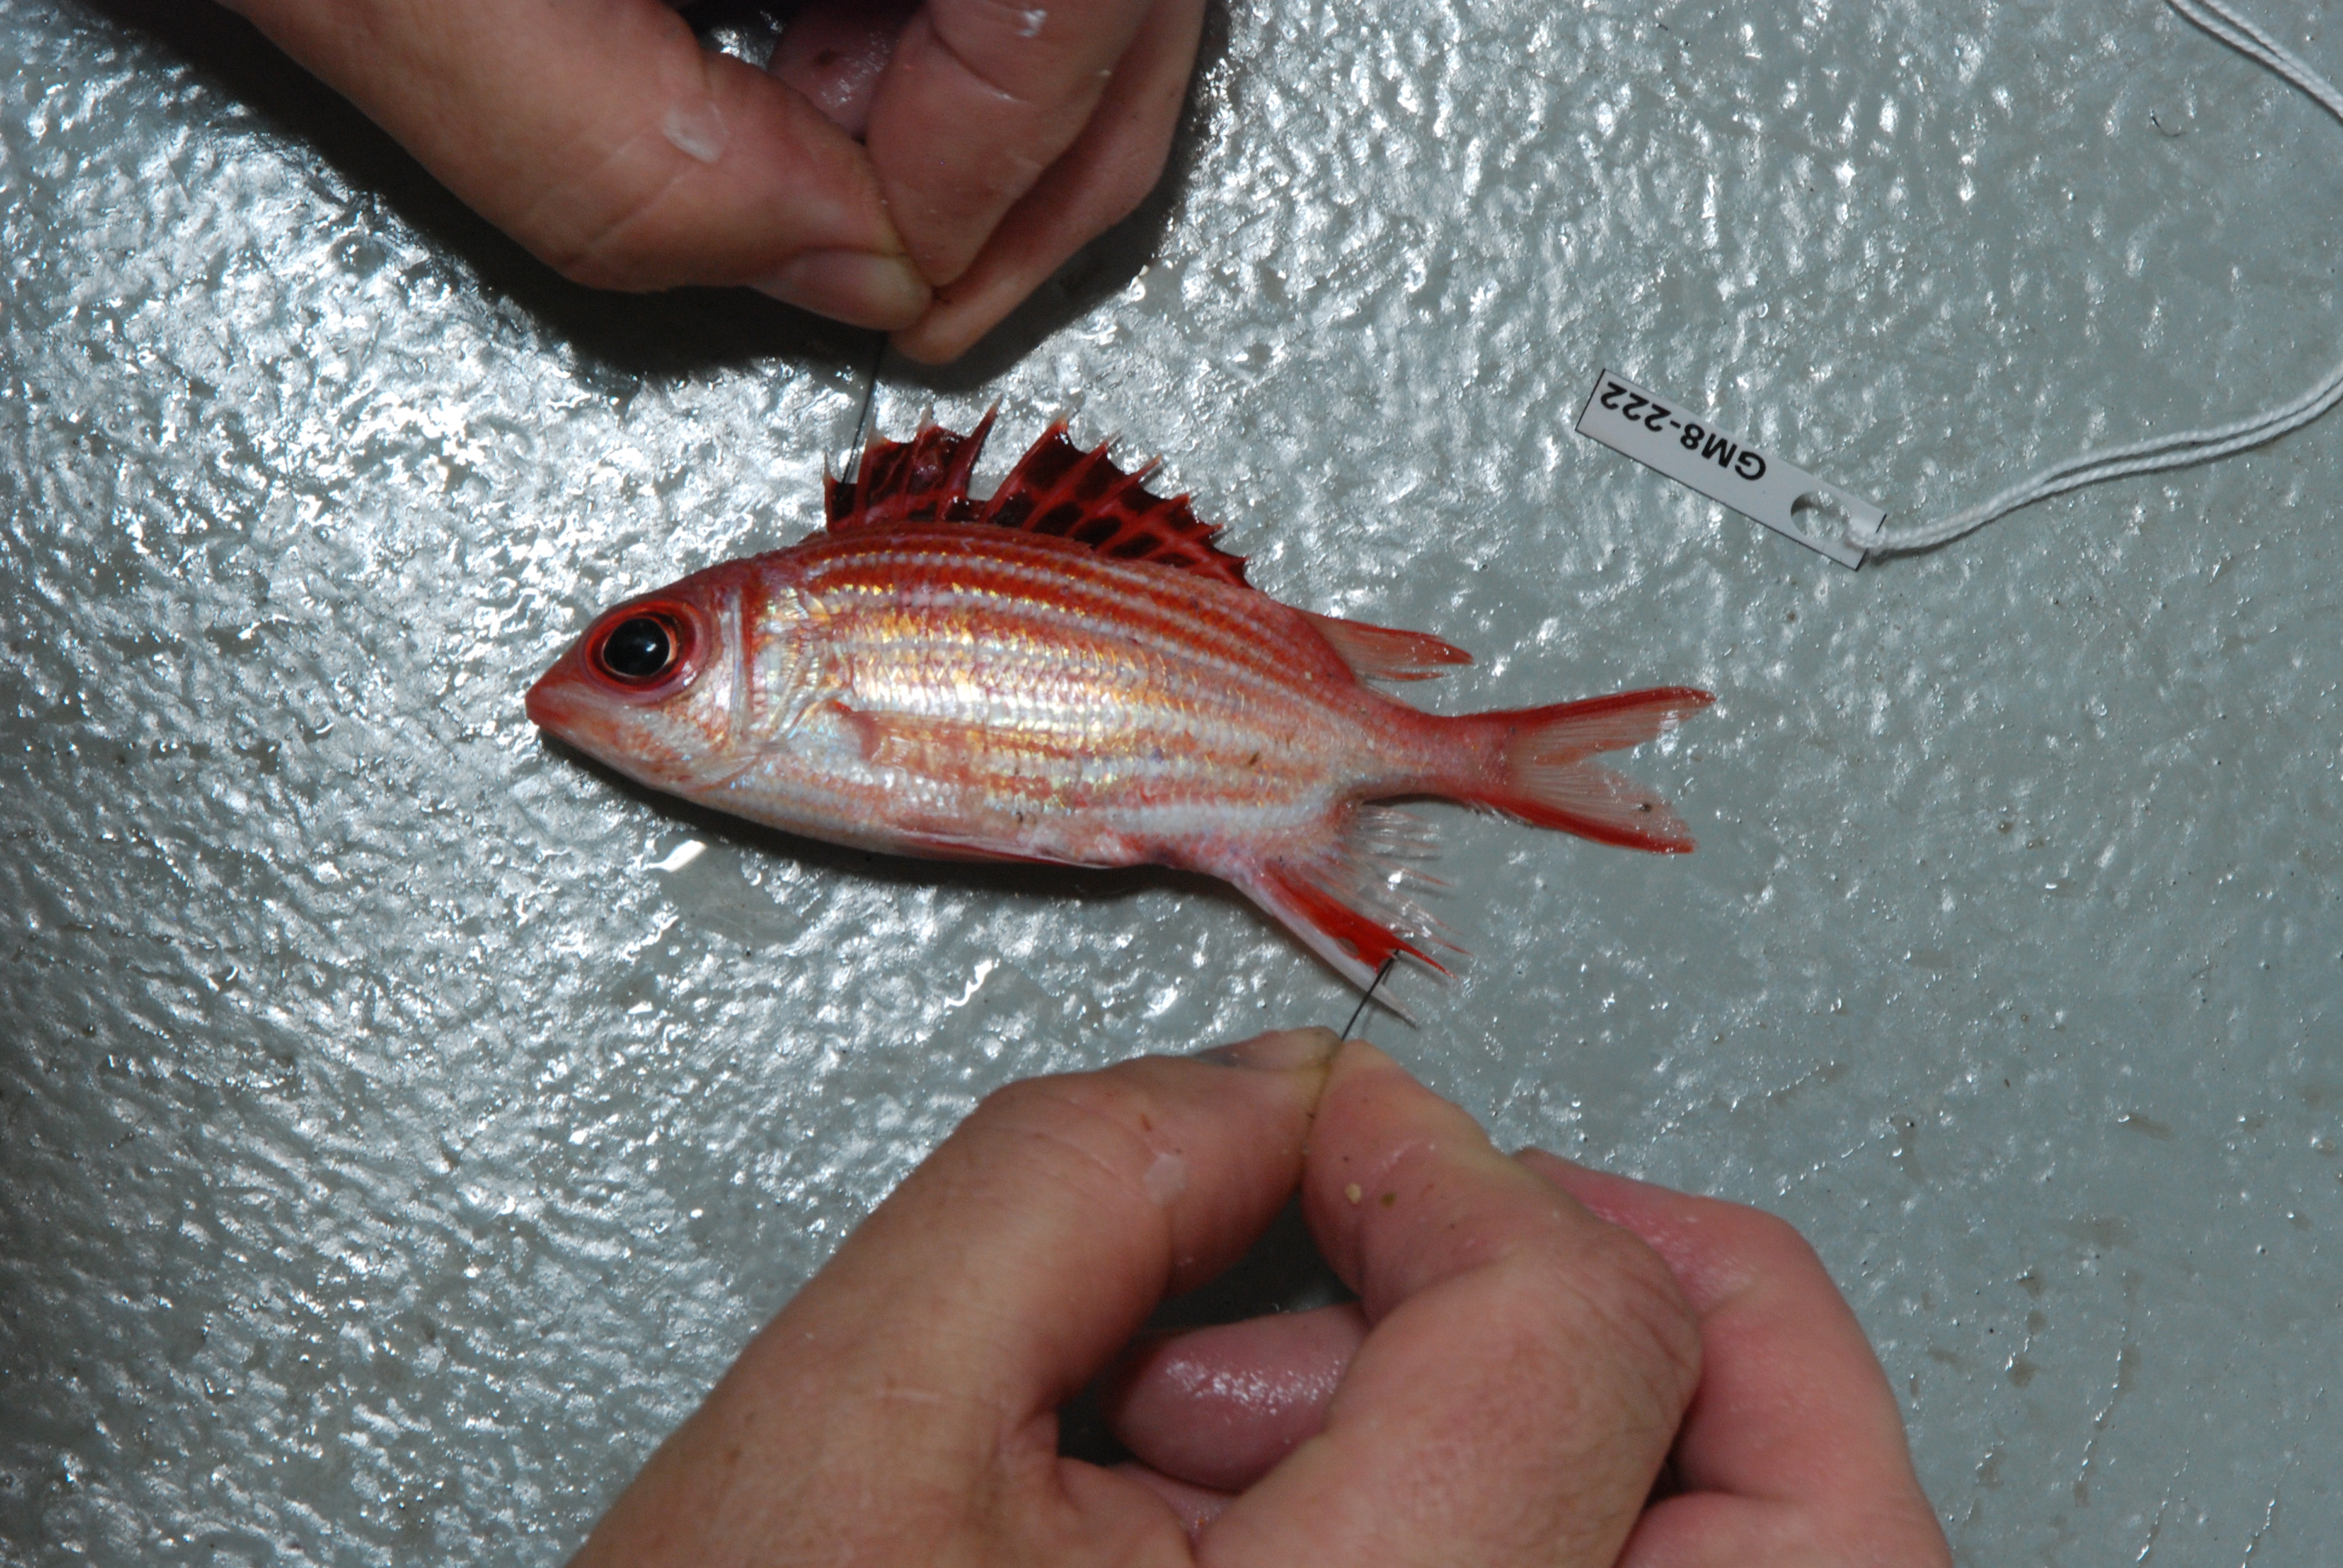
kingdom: Animalia
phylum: Chordata
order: Beryciformes
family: Holocentridae
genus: Sargocentron
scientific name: Sargocentron diadema
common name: Crown squirrelfish
